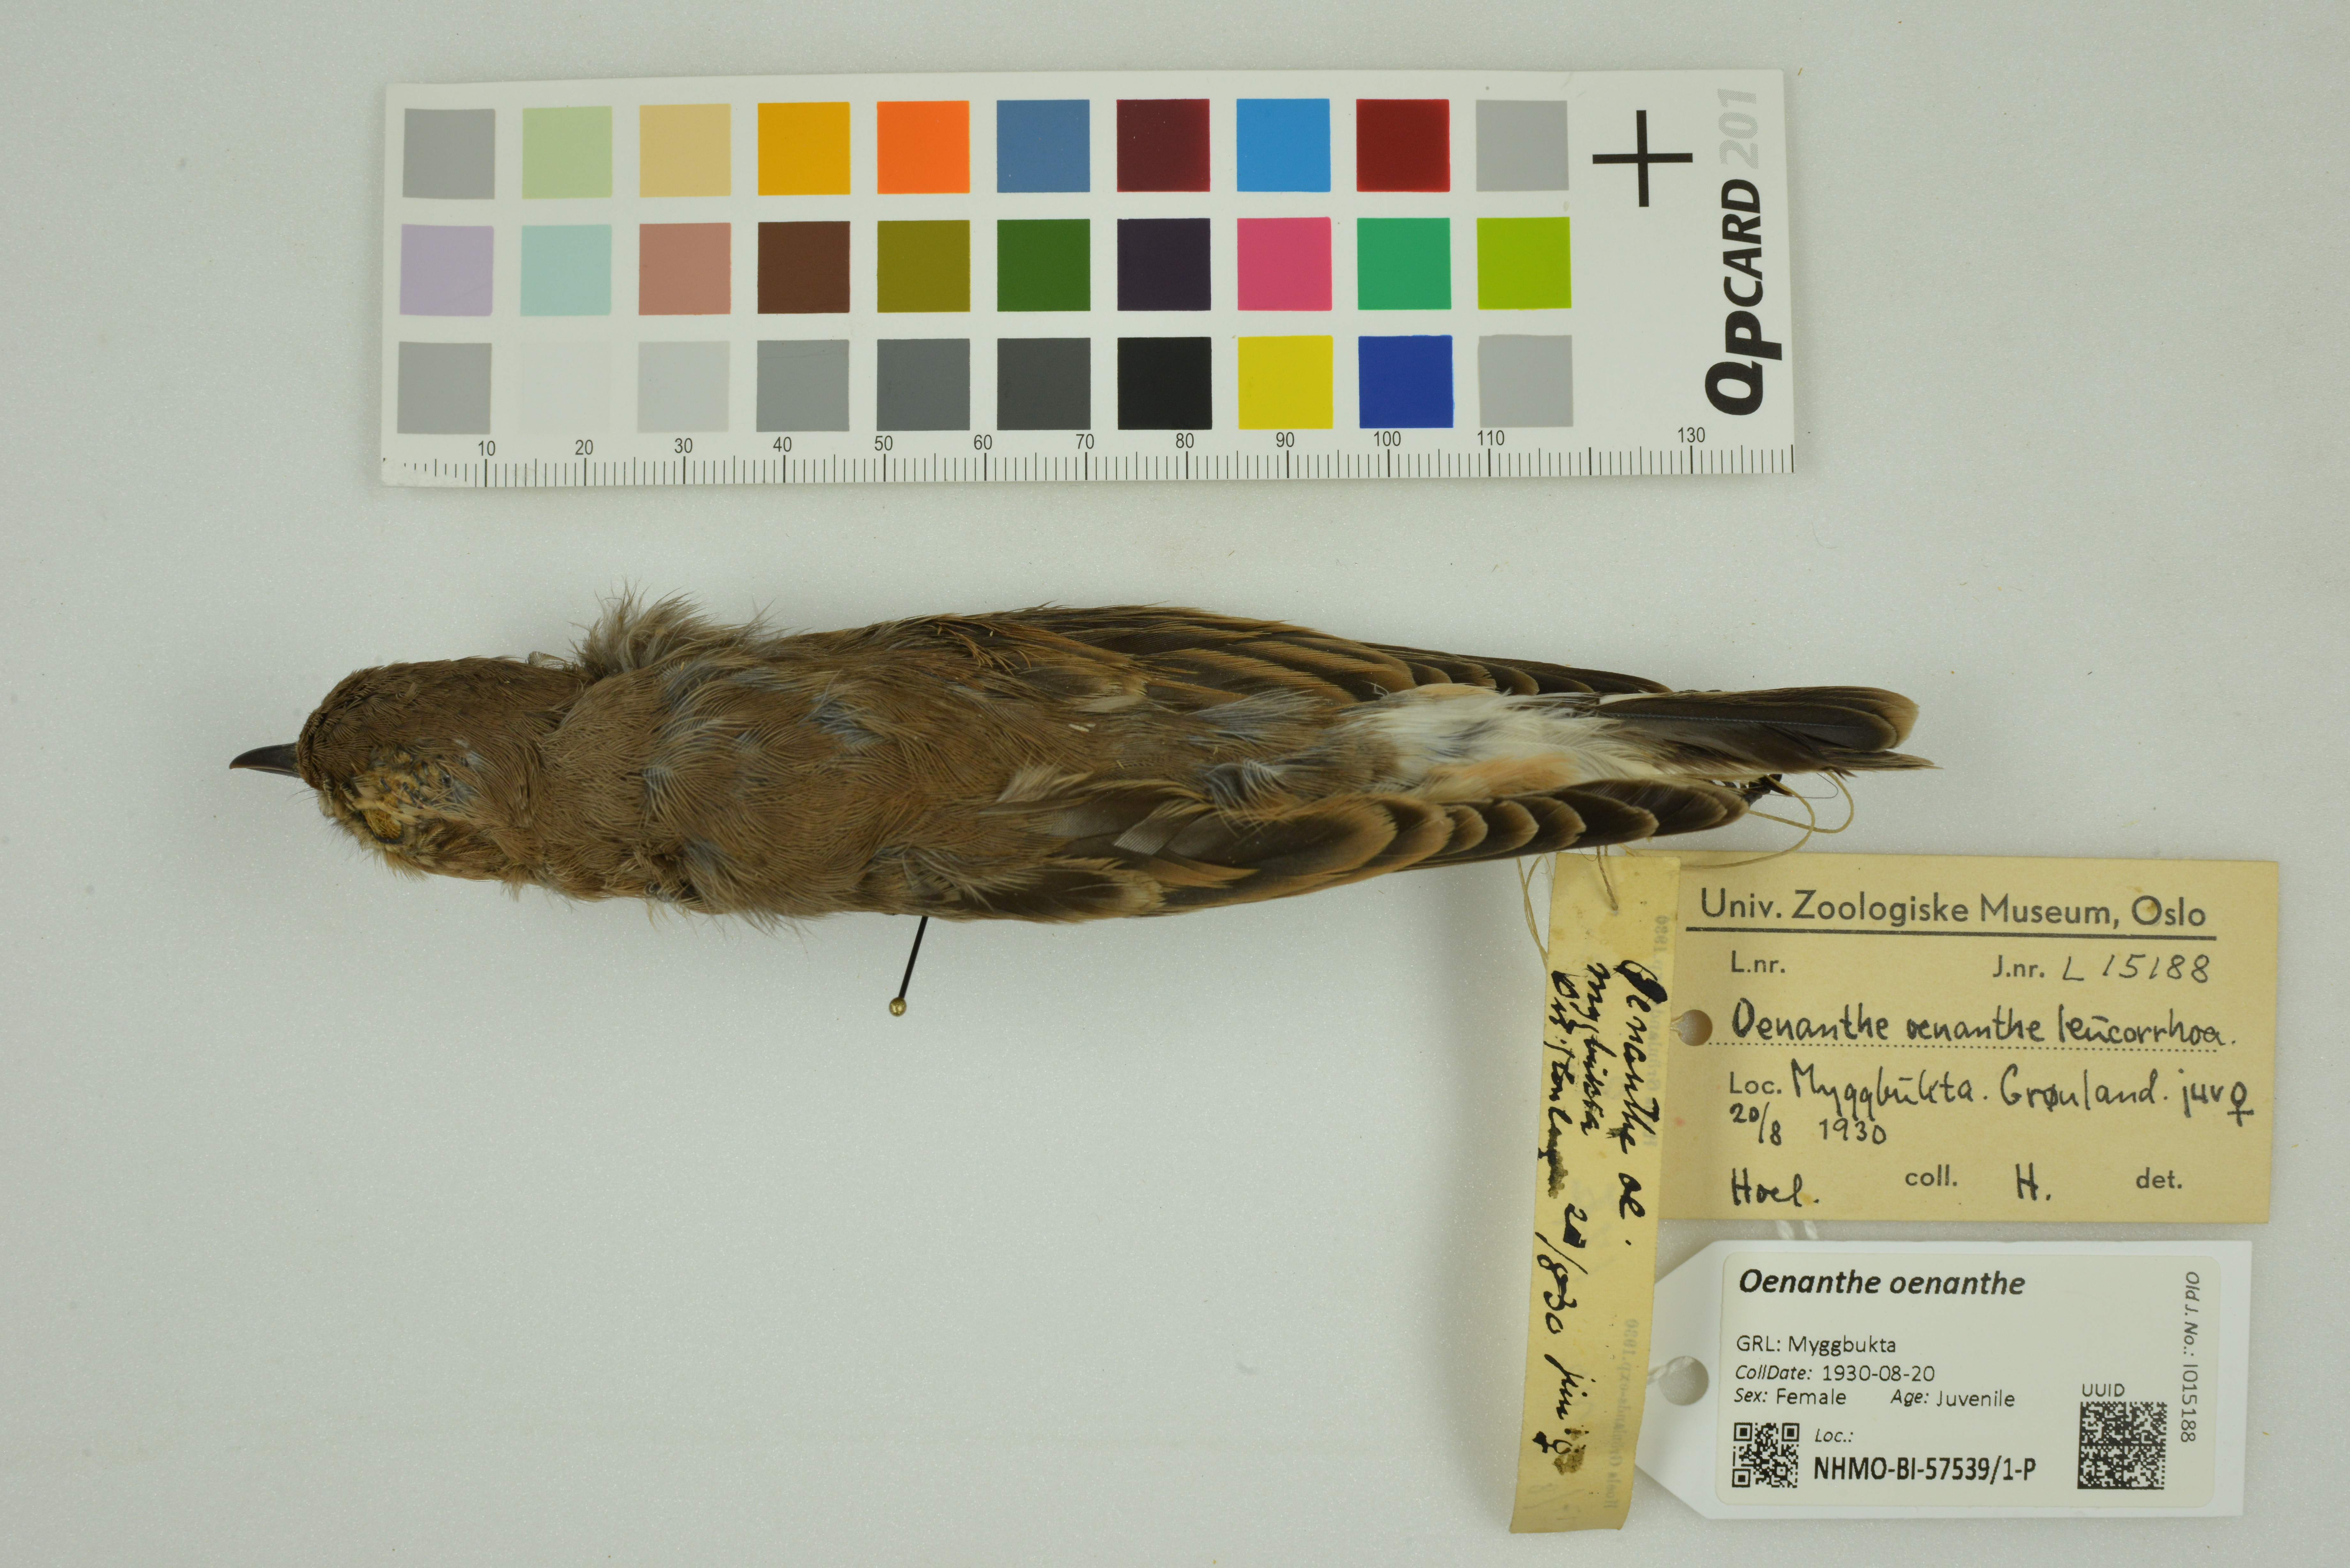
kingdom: Animalia
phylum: Chordata
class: Aves
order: Passeriformes
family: Muscicapidae
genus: Oenanthe
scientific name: Oenanthe oenanthe
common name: Northern wheatear
